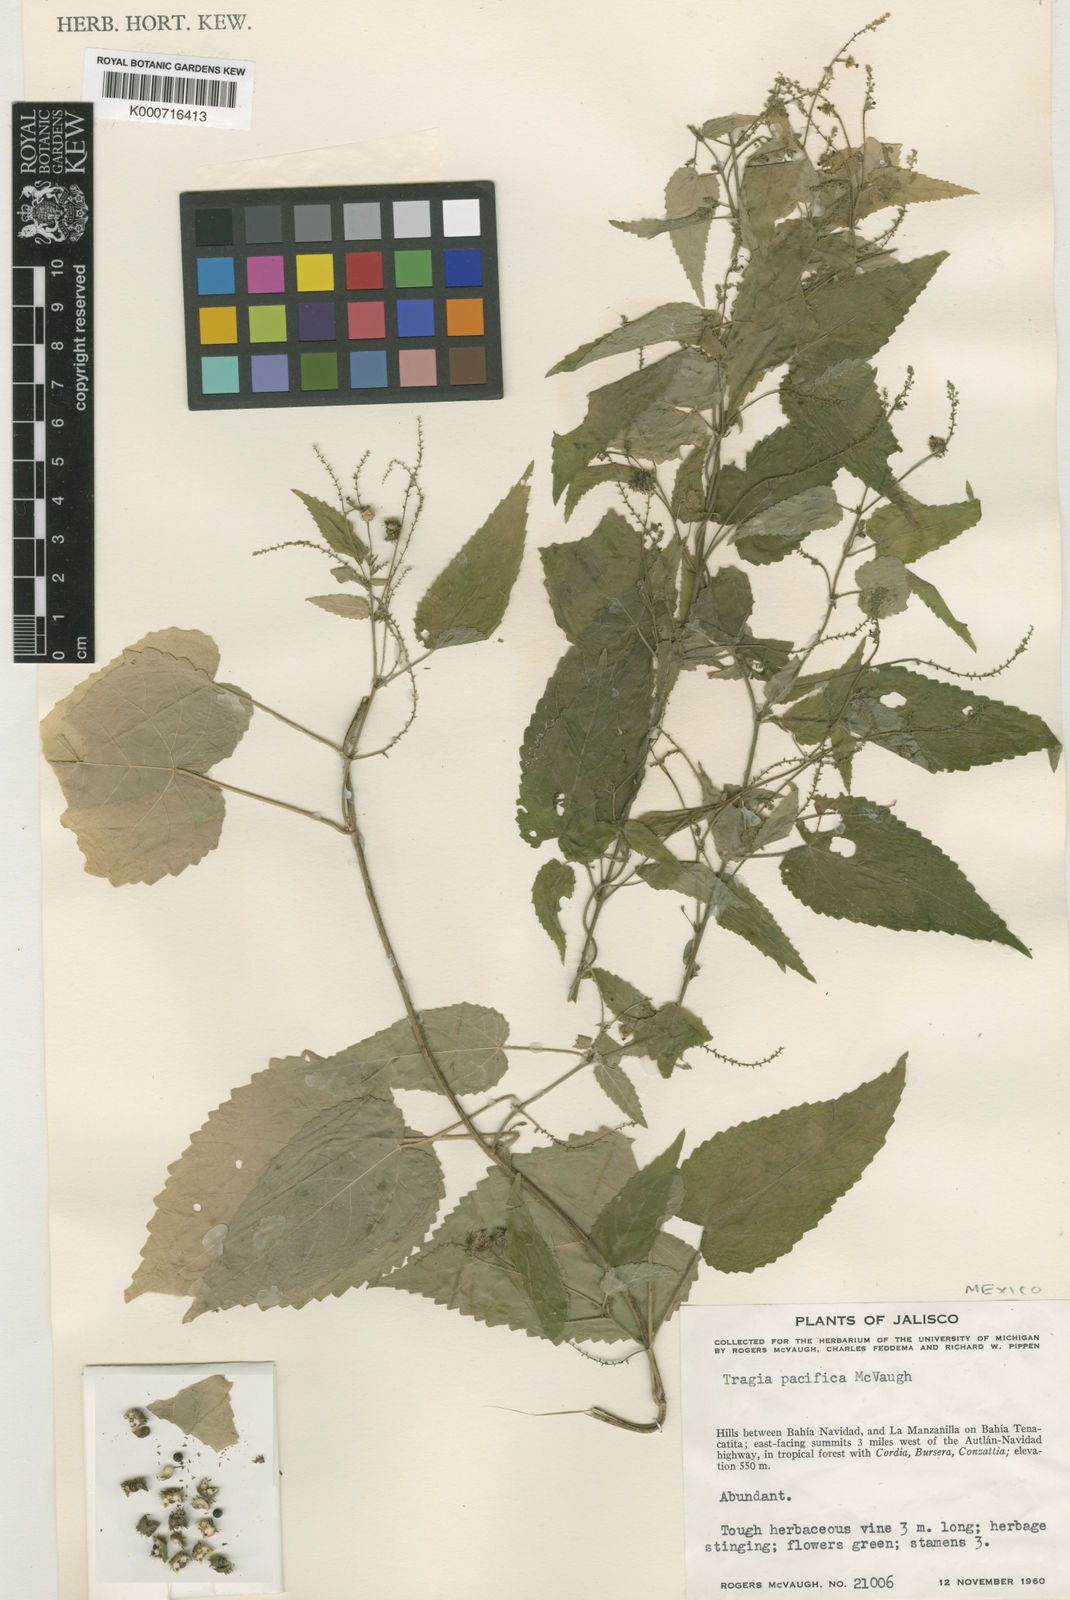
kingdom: Plantae
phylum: Tracheophyta
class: Magnoliopsida
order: Malpighiales
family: Euphorbiaceae
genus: Tragia
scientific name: Tragia pacifica
